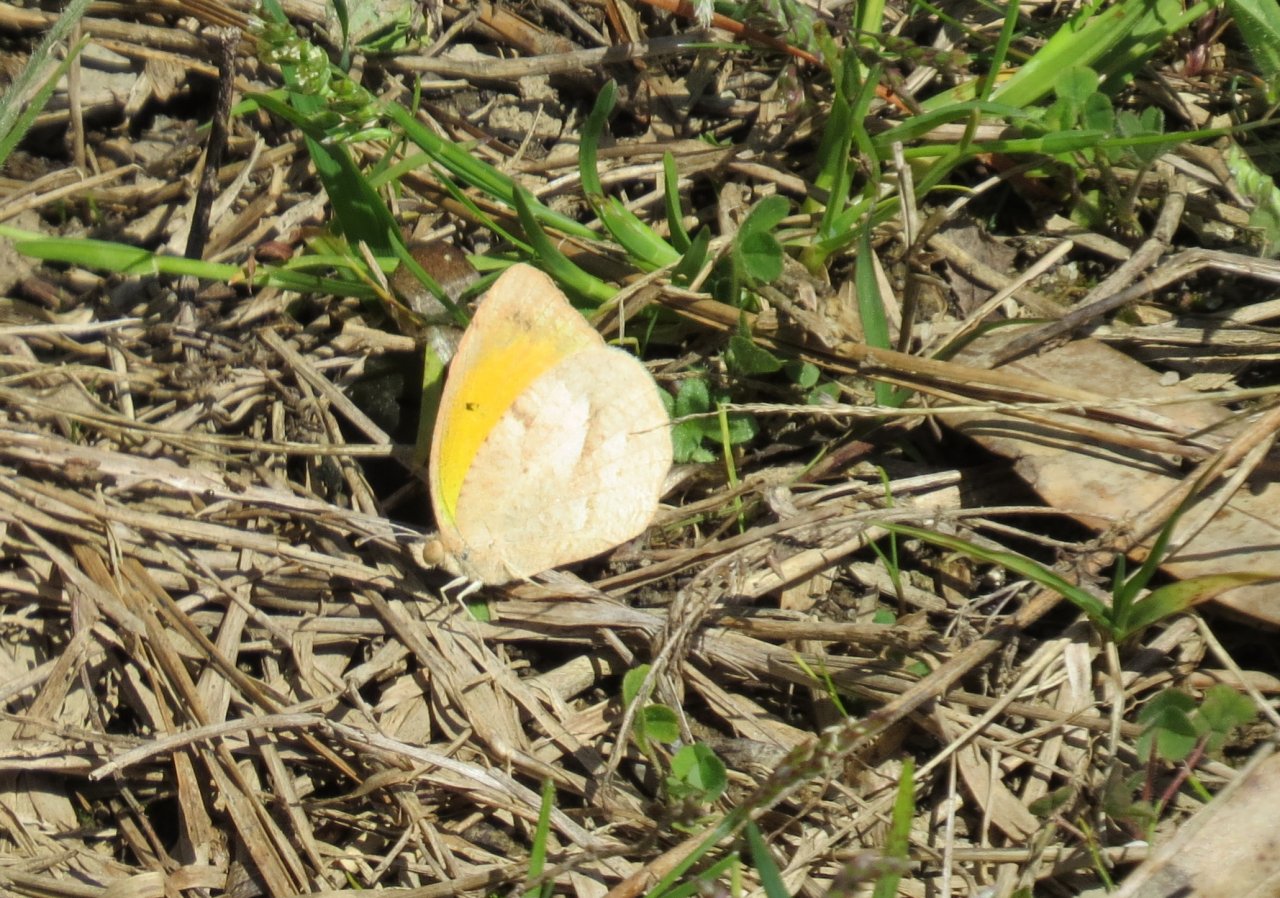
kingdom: Animalia
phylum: Arthropoda
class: Insecta
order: Lepidoptera
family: Pieridae
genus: Abaeis
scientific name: Abaeis nicippe
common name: Sleepy Orange
